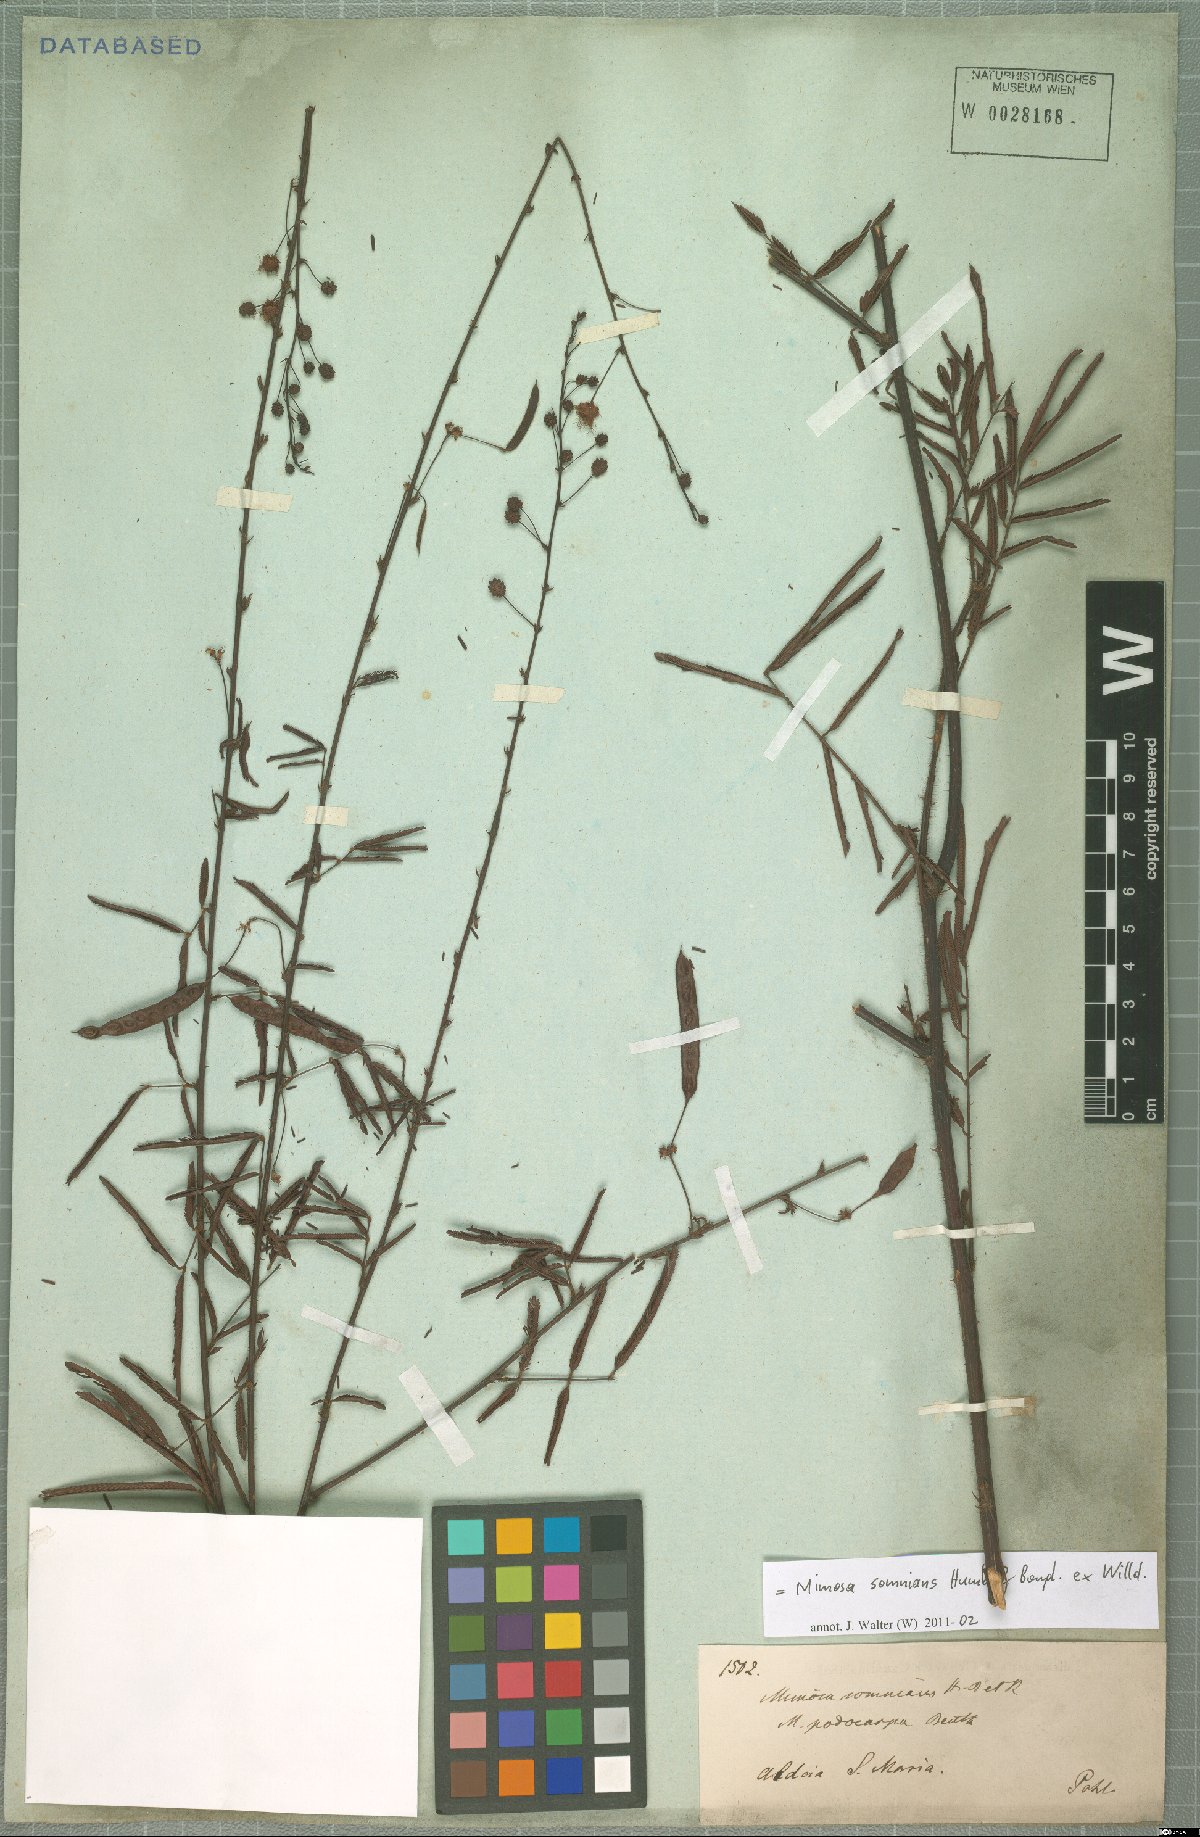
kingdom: Plantae
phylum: Tracheophyta
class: Magnoliopsida
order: Fabales
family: Fabaceae
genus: Mimosa
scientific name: Mimosa somnians
